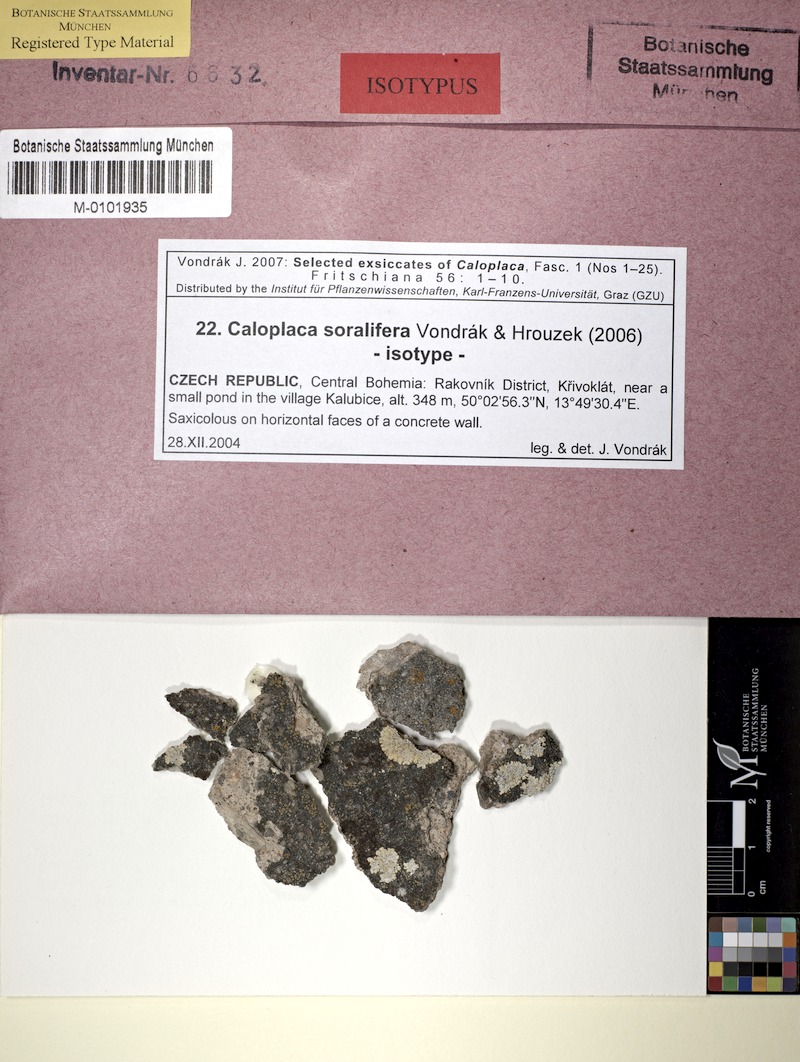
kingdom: Fungi
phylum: Ascomycota
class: Lecanoromycetes
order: Teloschistales
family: Teloschistaceae
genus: Kuettlingeria
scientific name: Kuettlingeria soralifera
